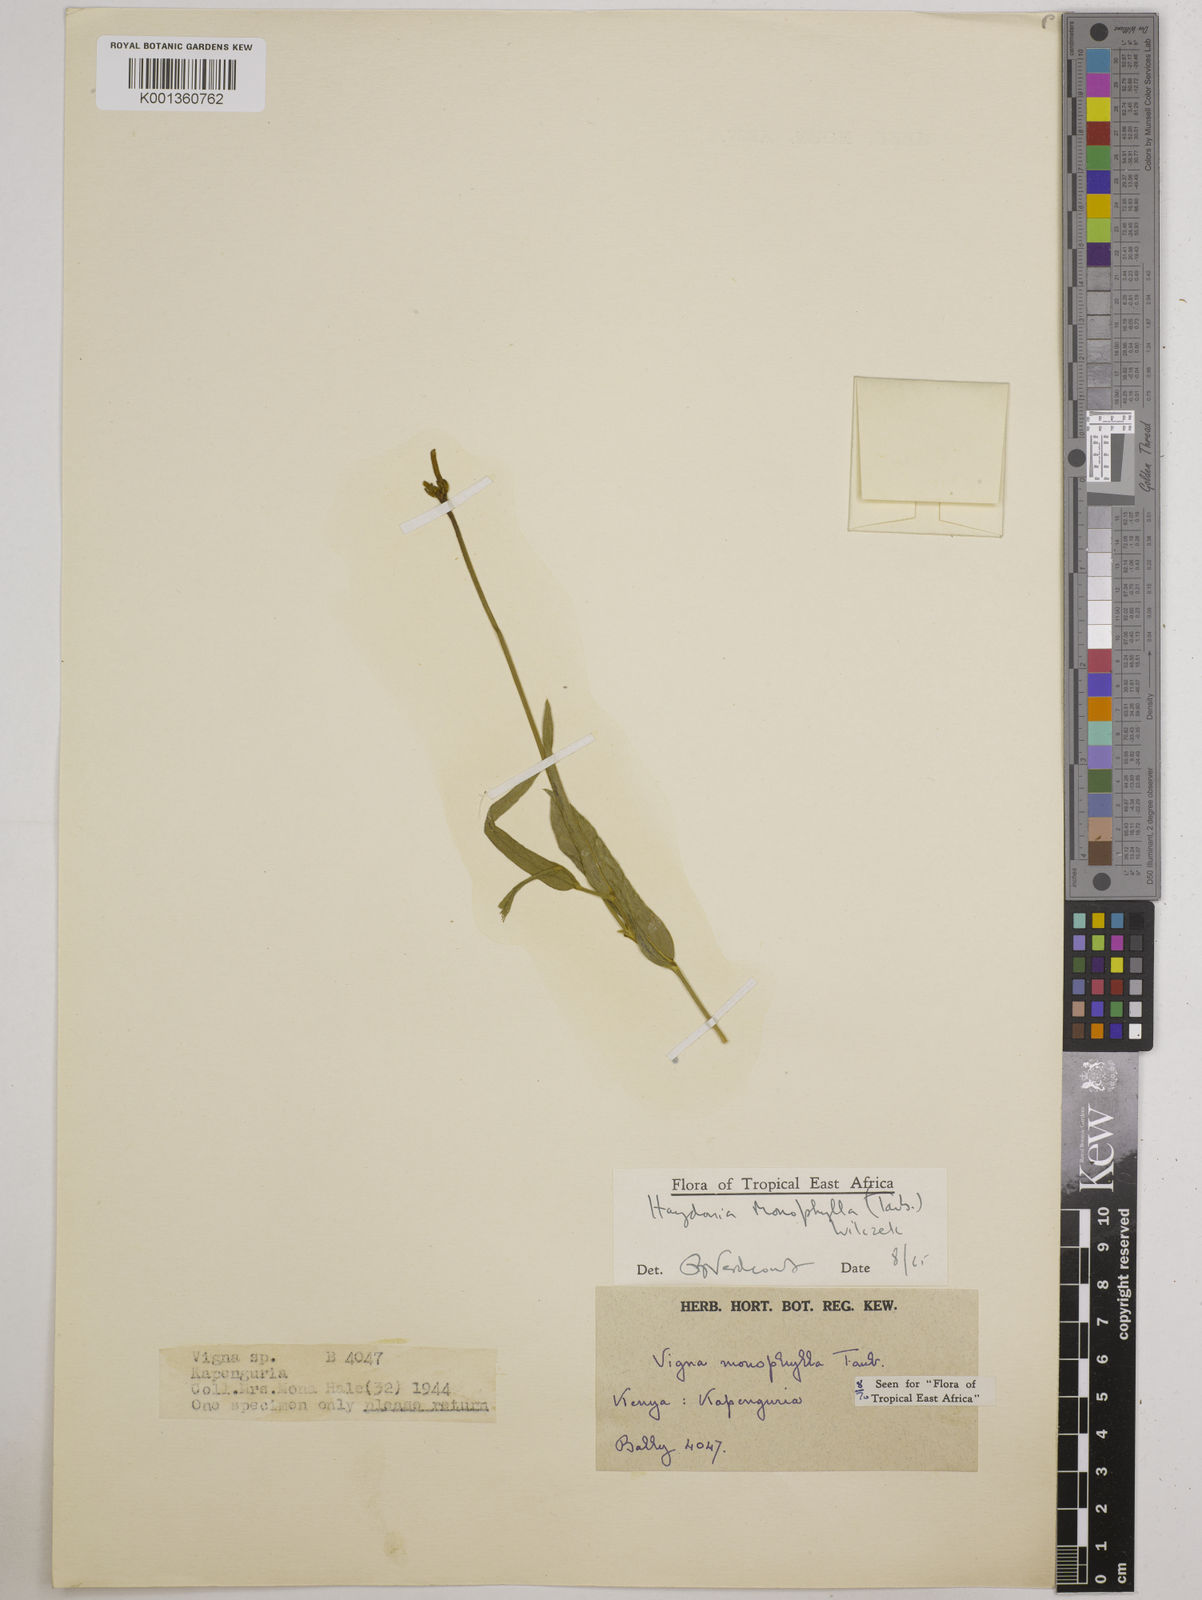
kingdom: Plantae
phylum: Tracheophyta
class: Magnoliopsida
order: Fabales
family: Fabaceae
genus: Vigna
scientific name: Vigna monophylla
